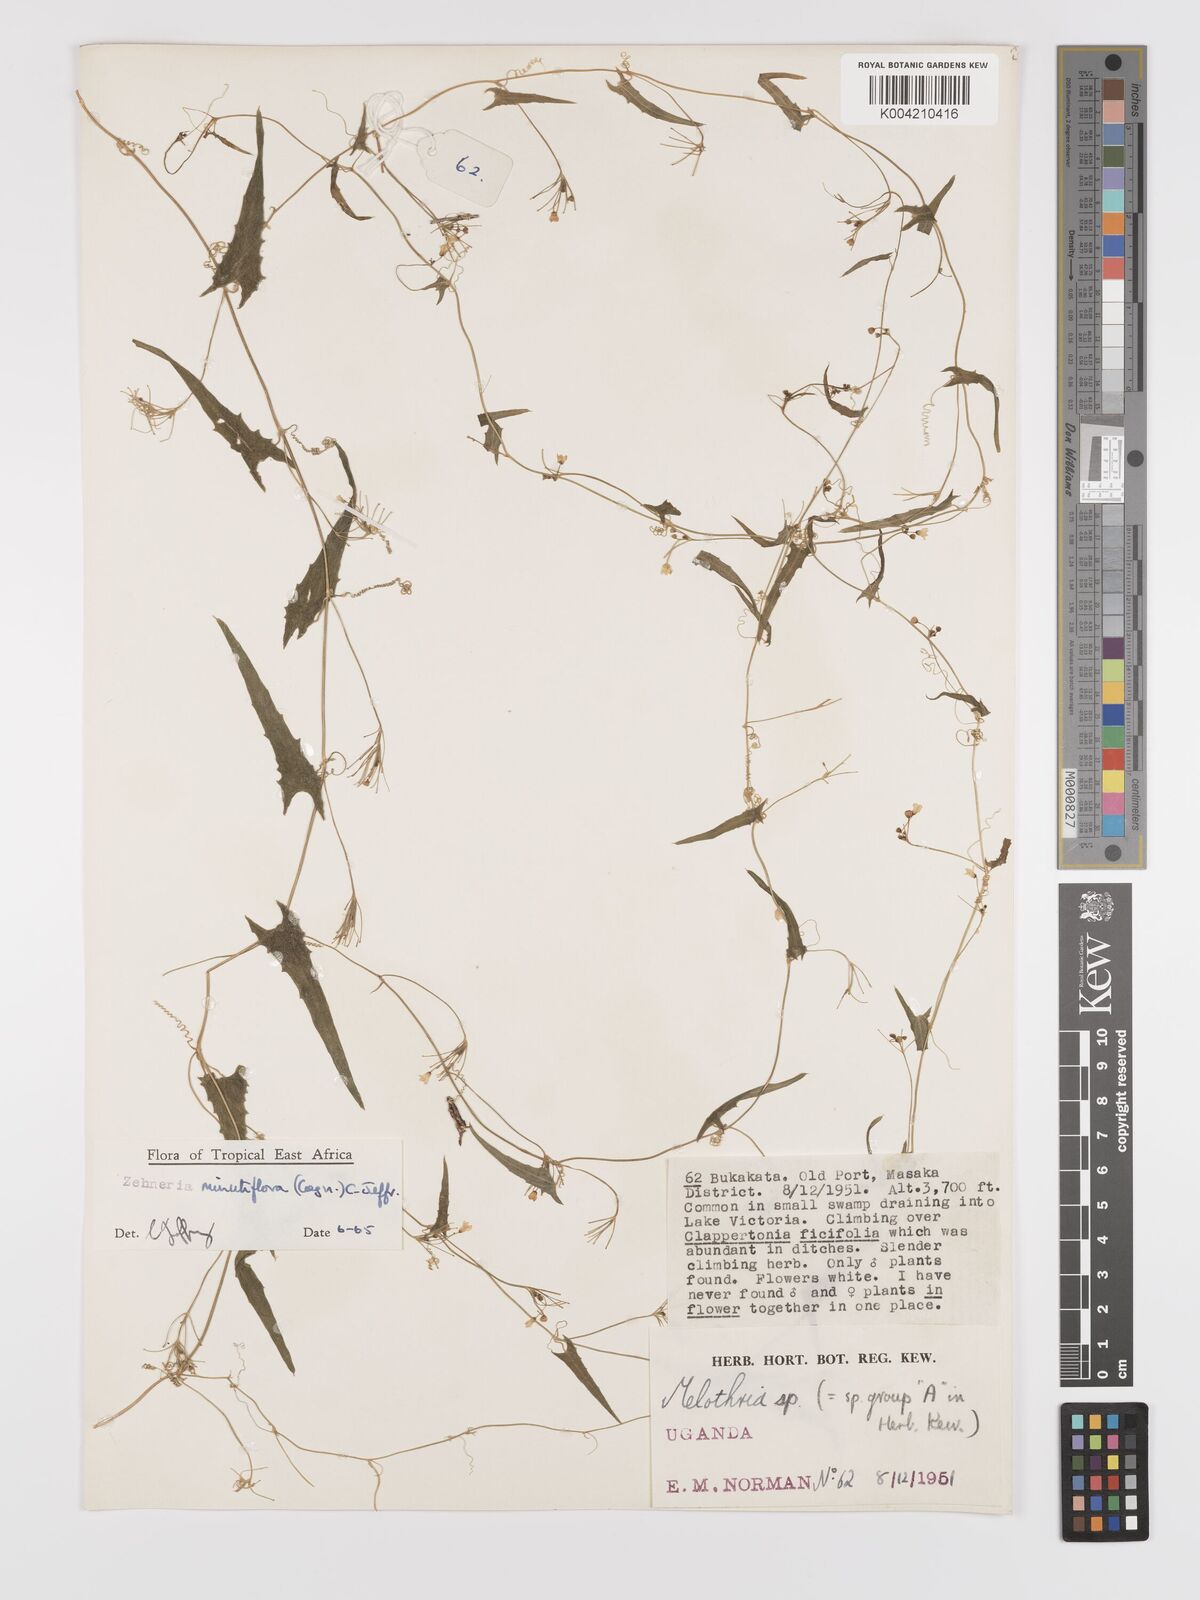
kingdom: Plantae
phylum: Tracheophyta
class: Magnoliopsida
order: Cucurbitales
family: Cucurbitaceae
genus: Zehneria
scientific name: Zehneria minutiflora
